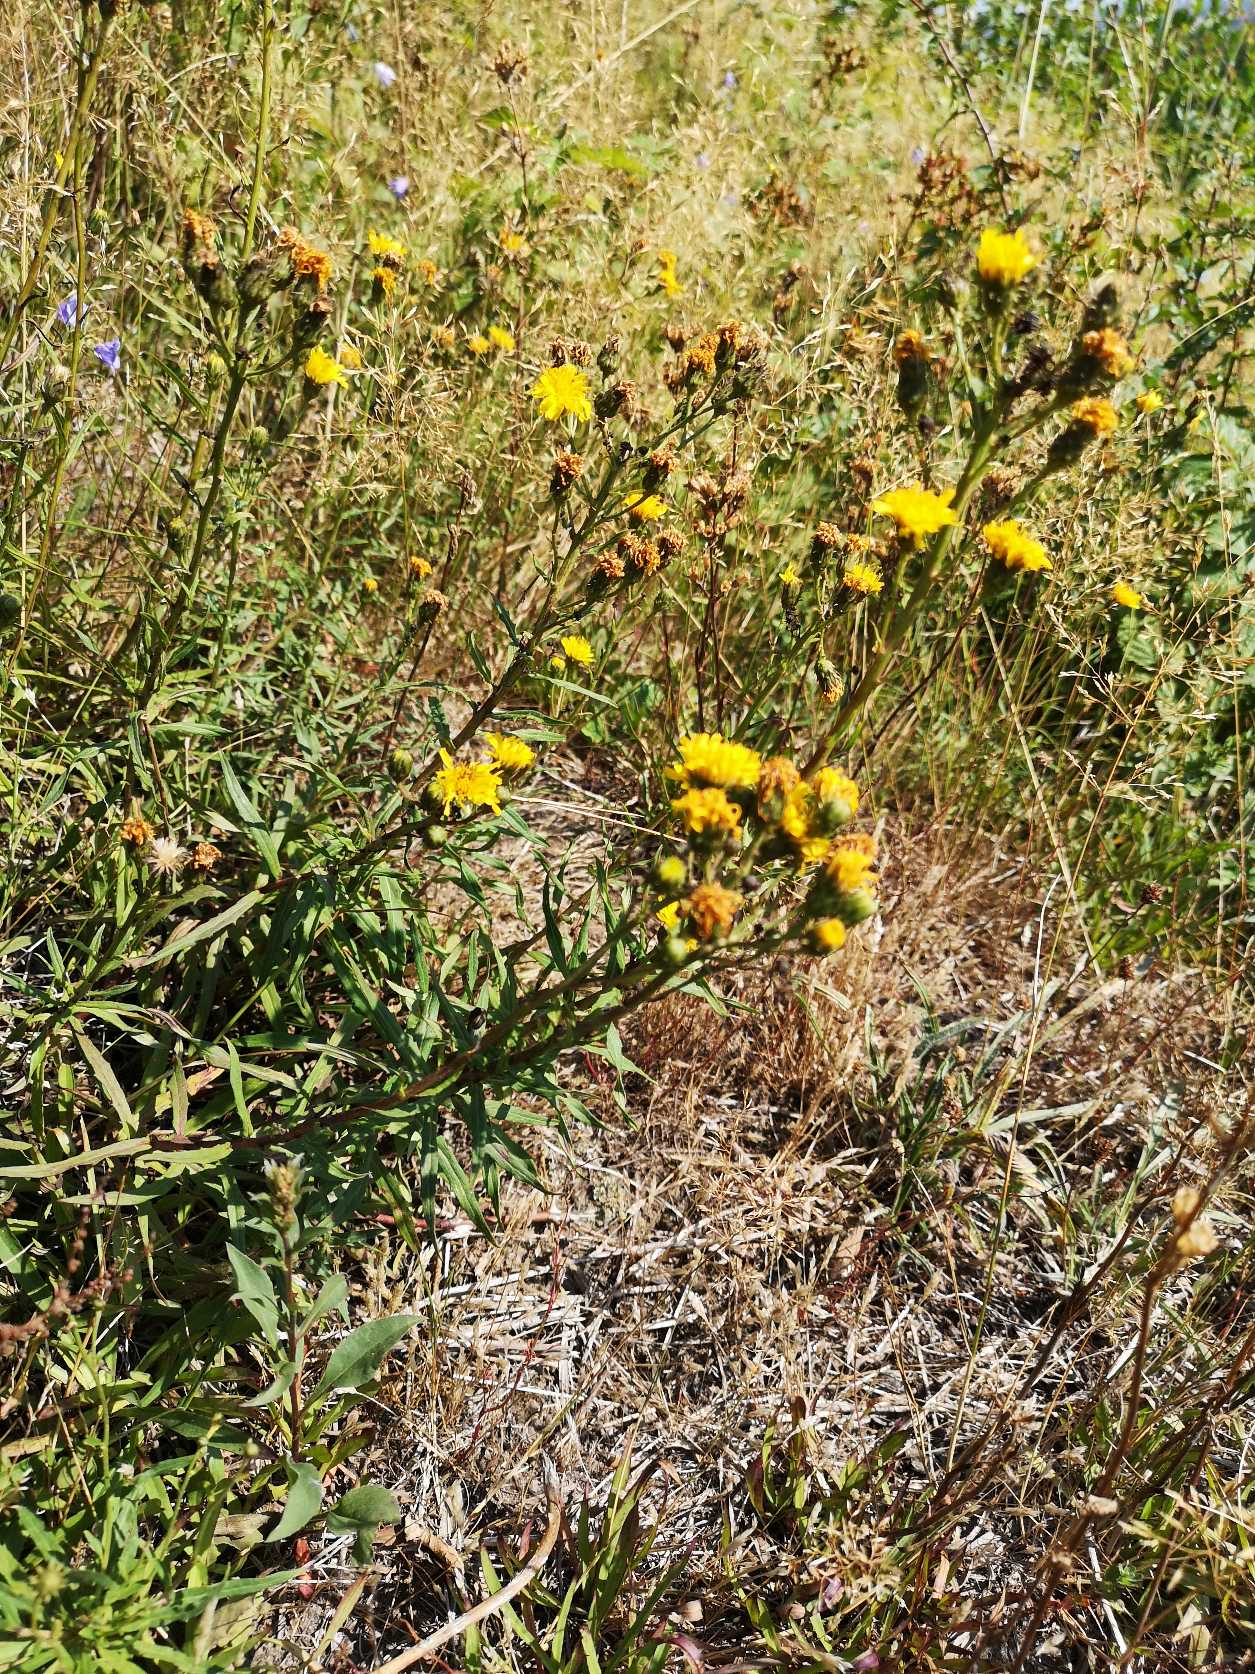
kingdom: Plantae
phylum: Tracheophyta
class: Magnoliopsida
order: Asterales
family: Asteraceae
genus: Hieracium
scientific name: Hieracium umbellatum
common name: Smalbladet høgeurt
